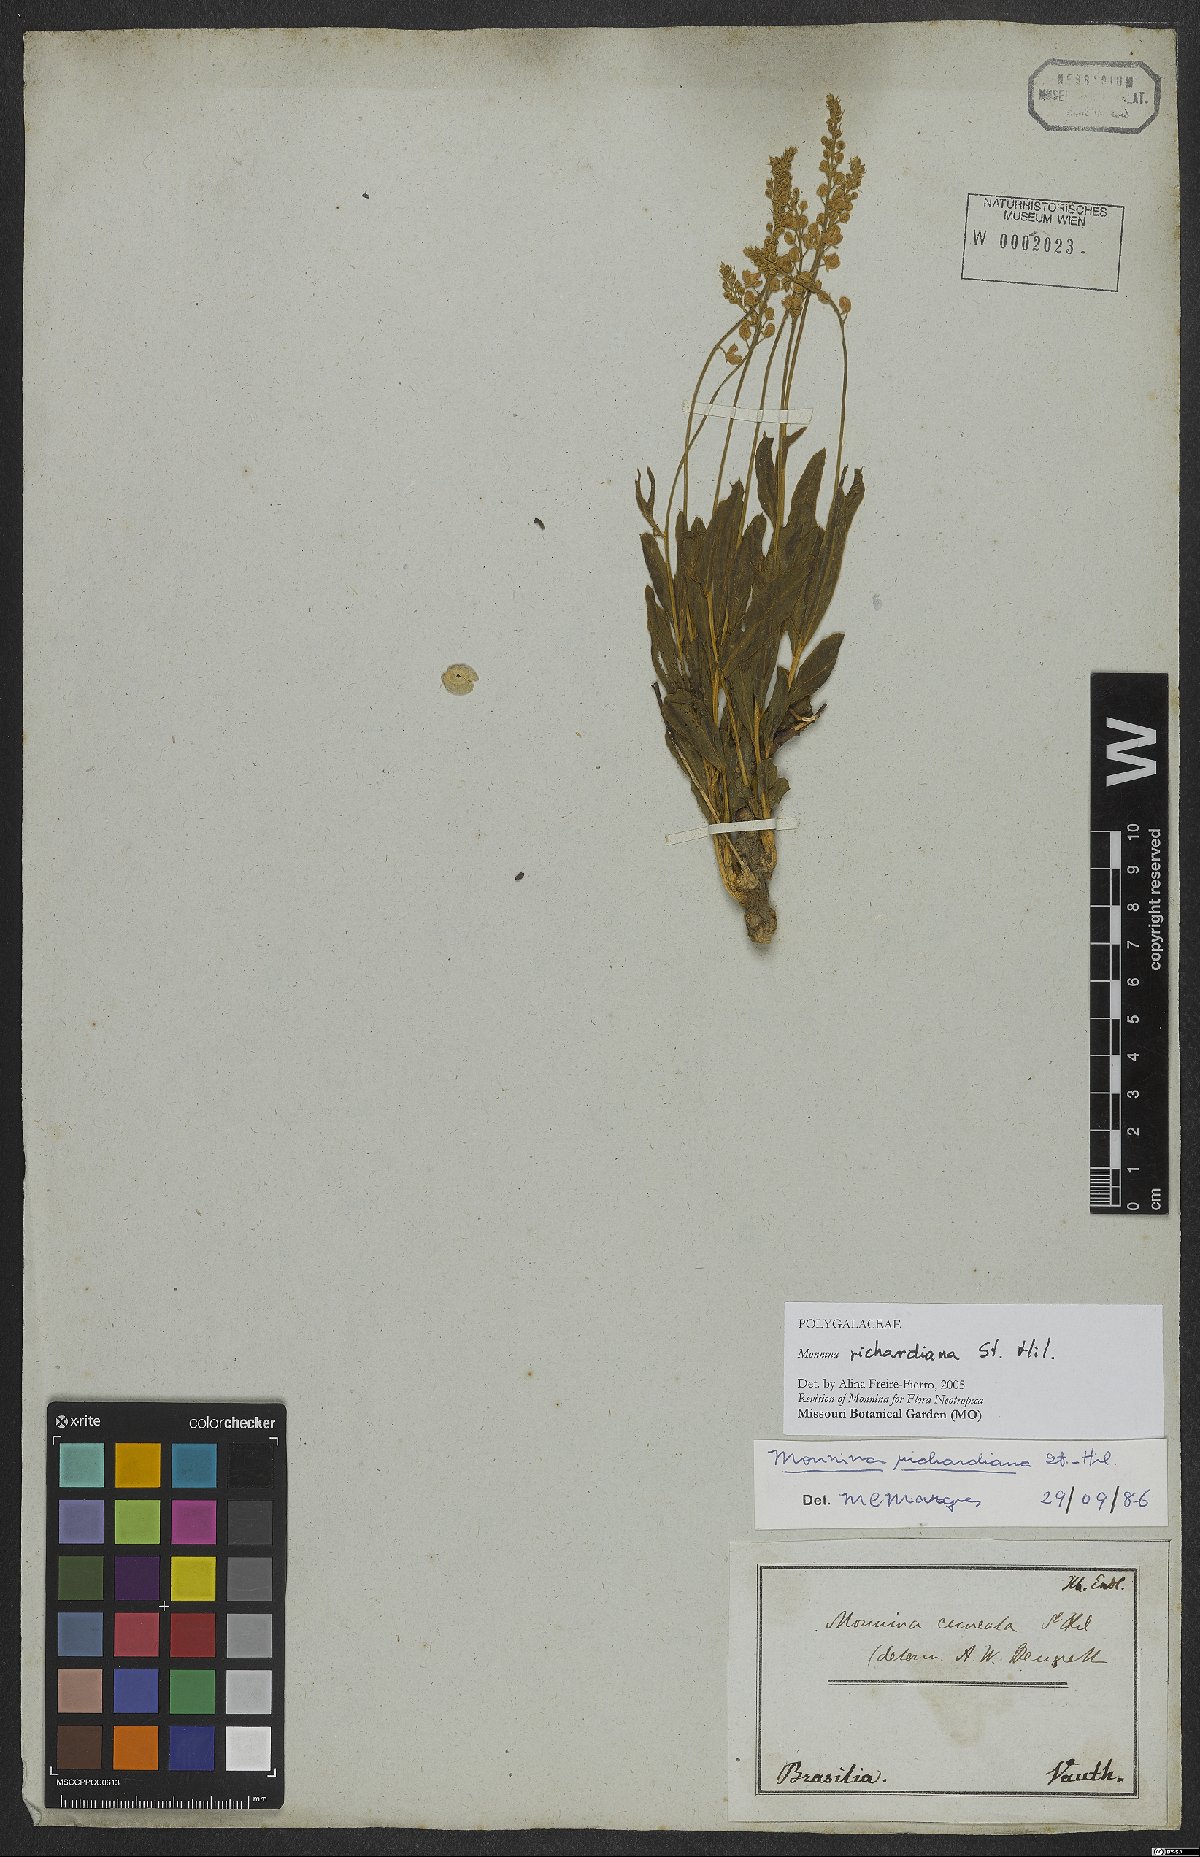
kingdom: Plantae
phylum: Tracheophyta
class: Magnoliopsida
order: Fabales
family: Polygalaceae
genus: Monnina
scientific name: Monnina richardiana
